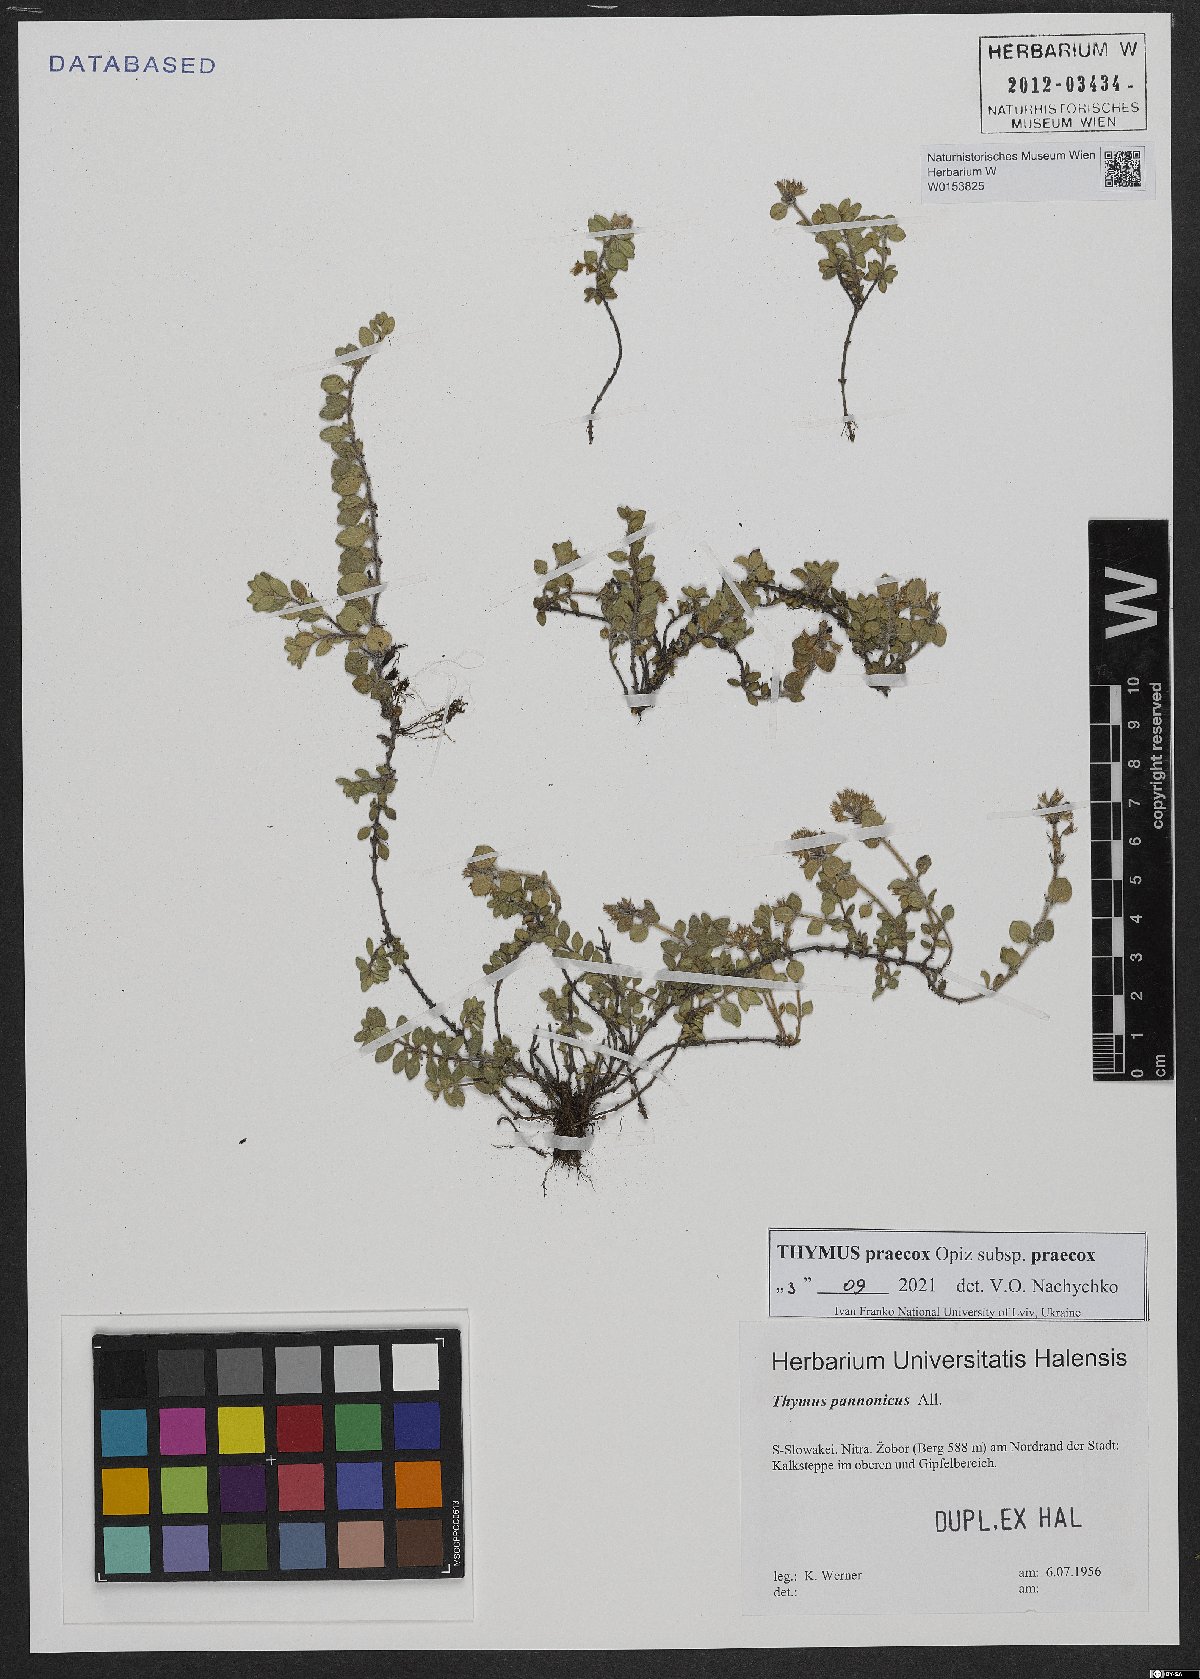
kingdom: Plantae
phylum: Tracheophyta
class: Magnoliopsida
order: Lamiales
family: Lamiaceae
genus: Thymus
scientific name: Thymus pannonicus
